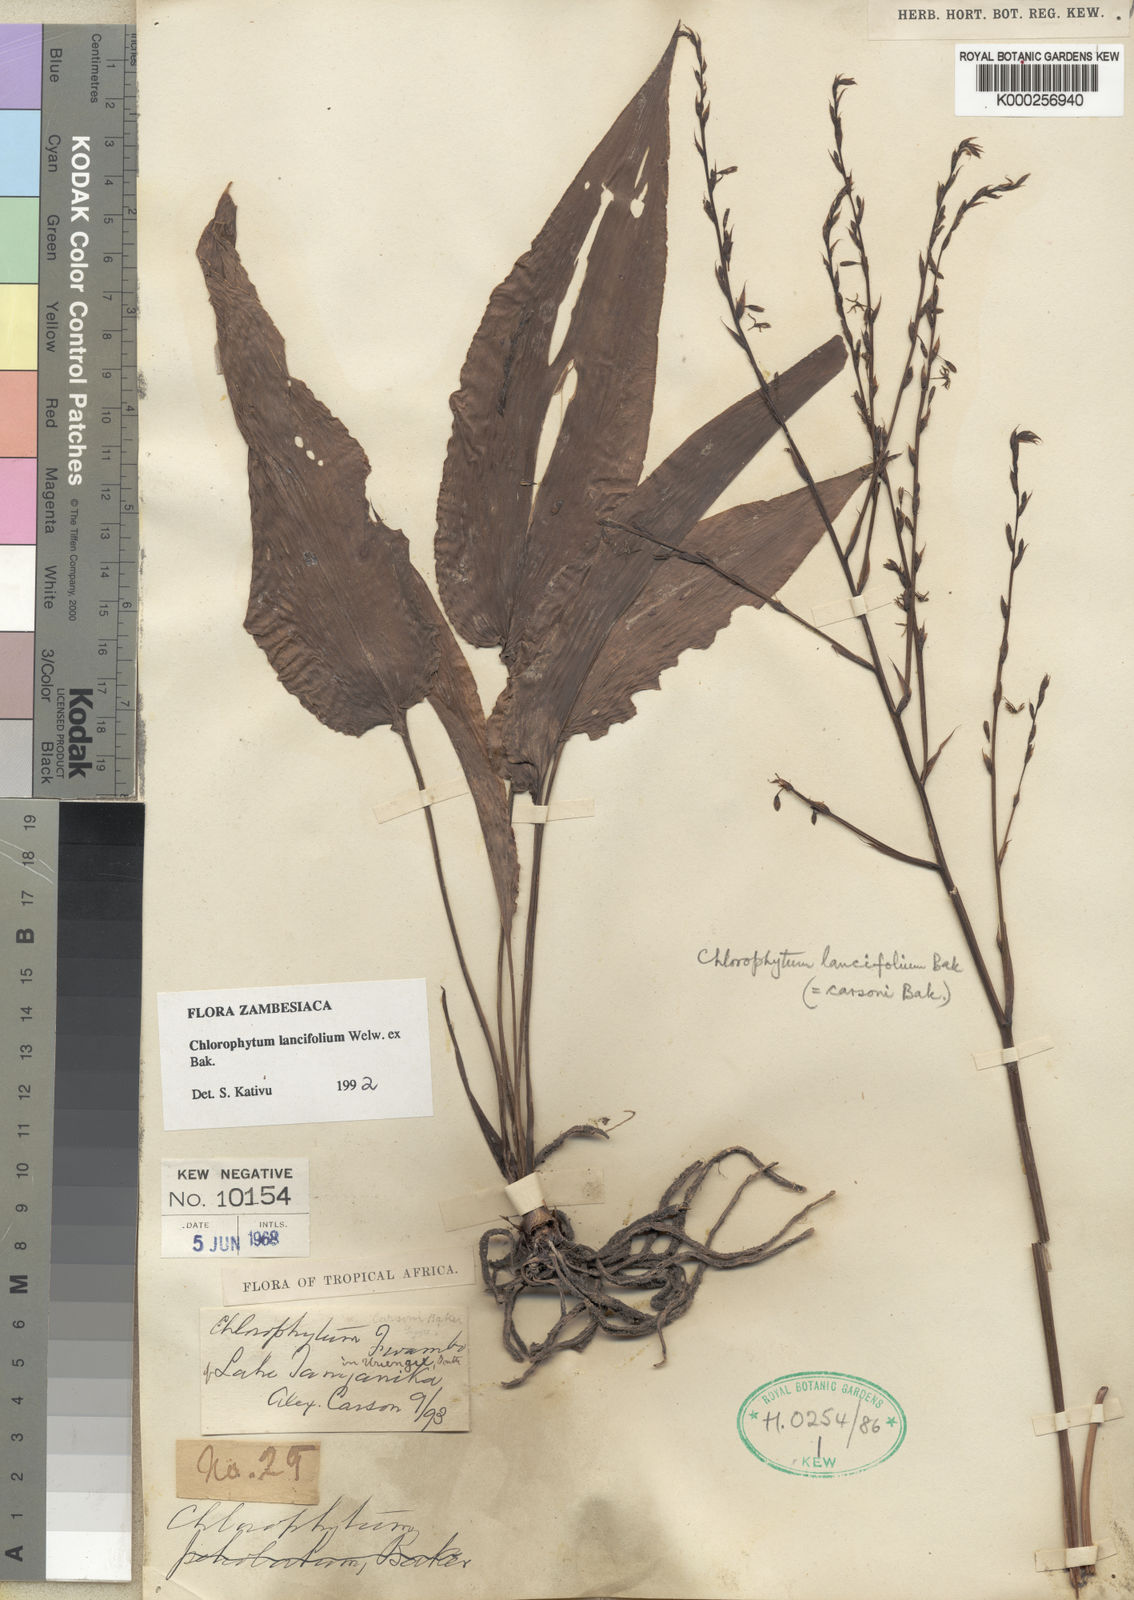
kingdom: Plantae
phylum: Tracheophyta
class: Liliopsida
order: Asparagales
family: Asparagaceae
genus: Chlorophytum
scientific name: Chlorophytum lancifolium
